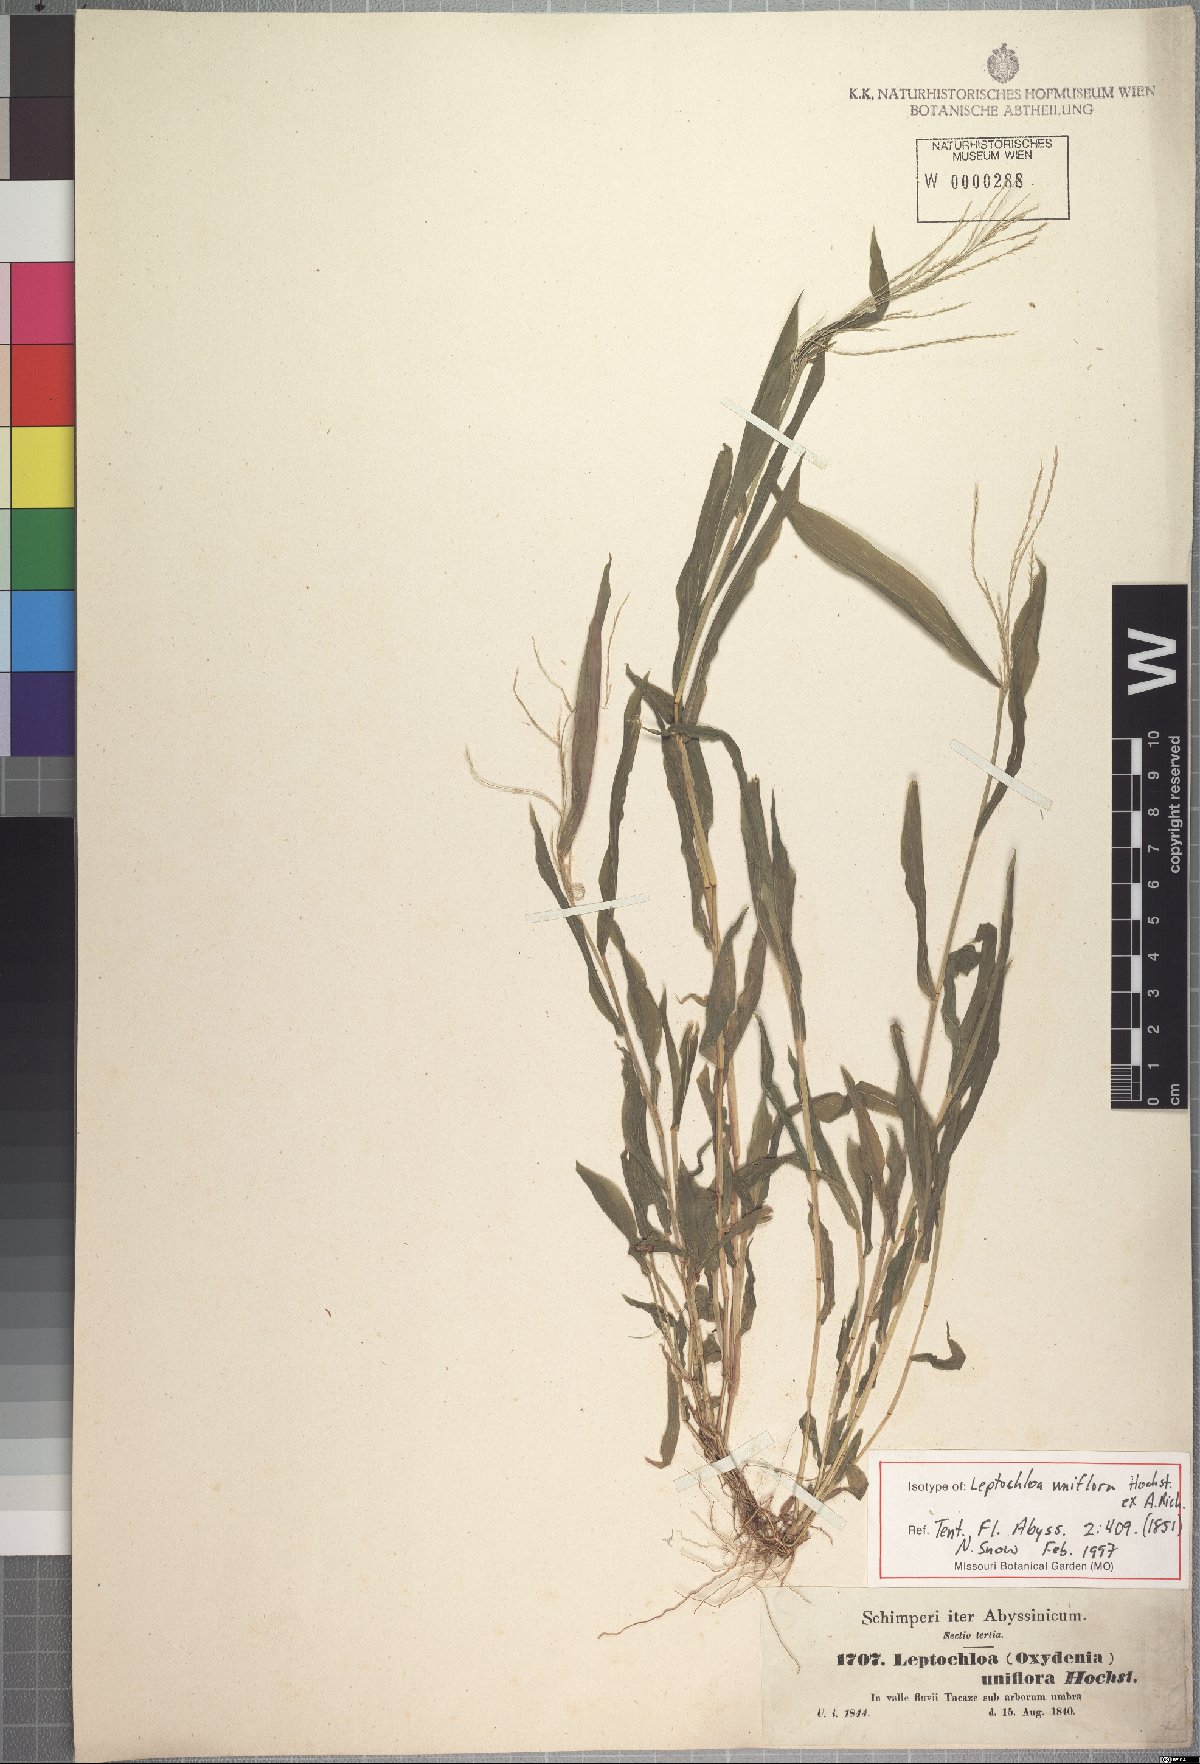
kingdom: Plantae
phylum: Tracheophyta
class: Liliopsida
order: Poales
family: Poaceae
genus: Trigonochloa
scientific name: Trigonochloa uniflora
